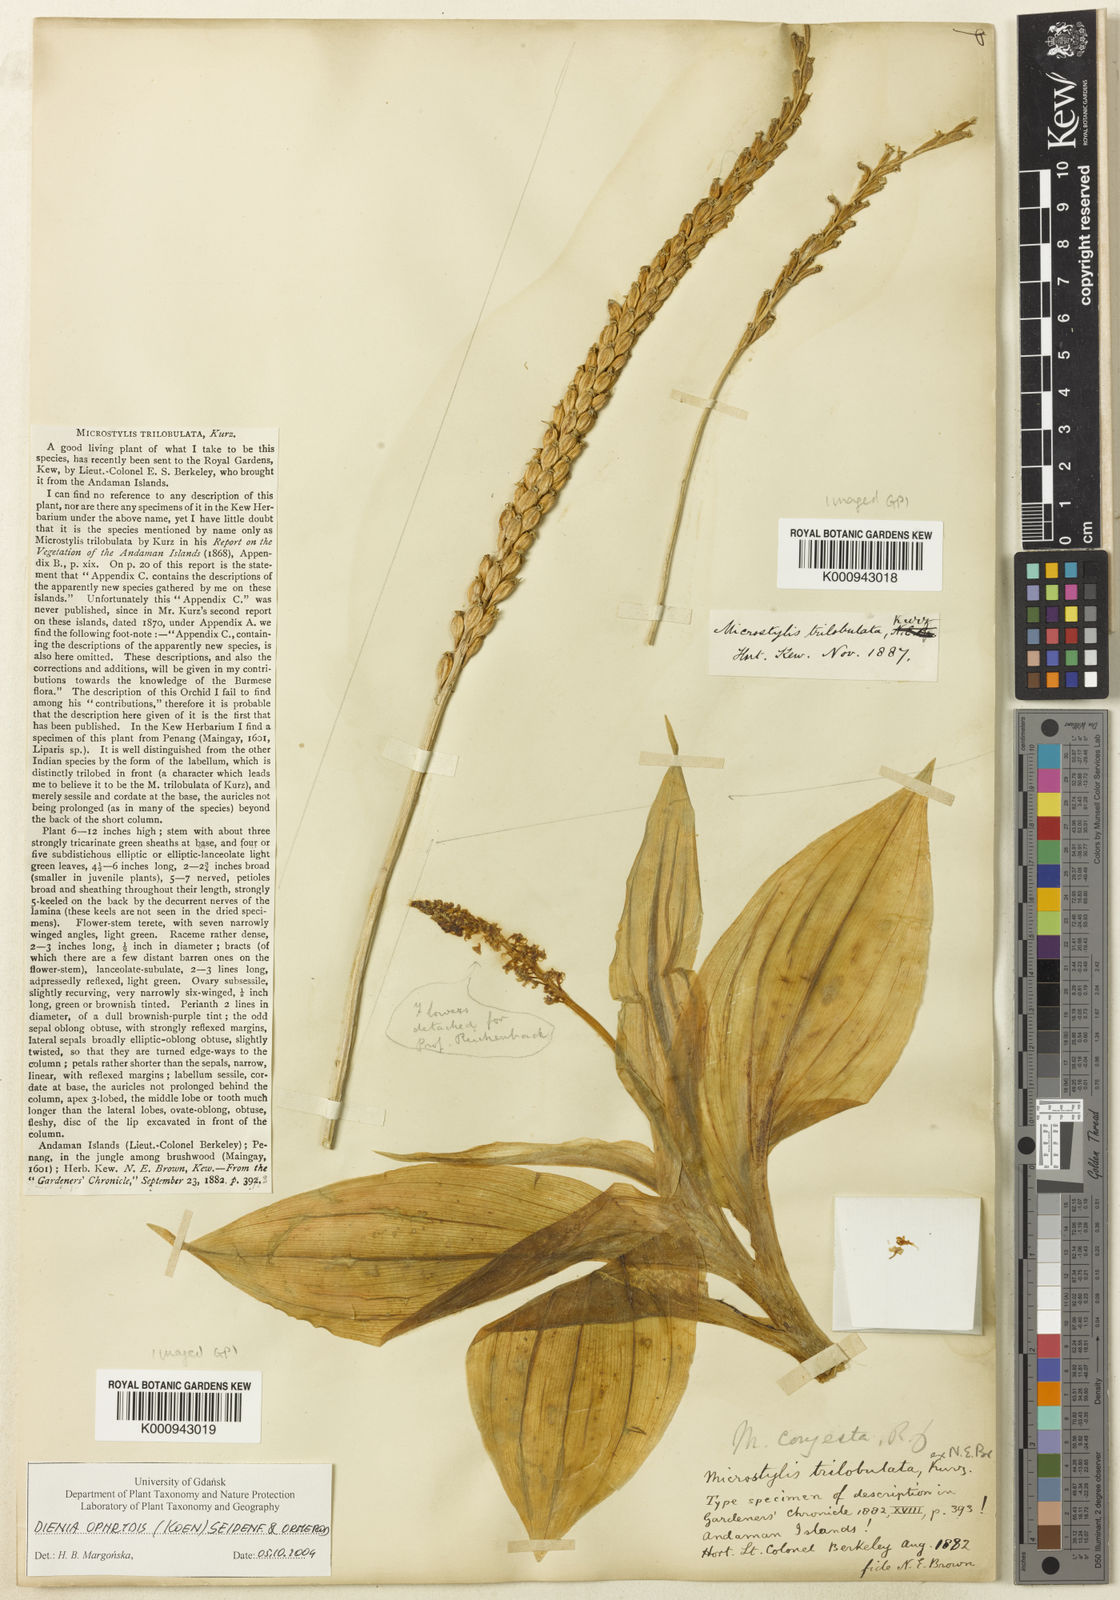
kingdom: Plantae
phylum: Tracheophyta
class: Liliopsida
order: Asparagales
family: Orchidaceae
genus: Dienia
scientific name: Dienia ophrydis
